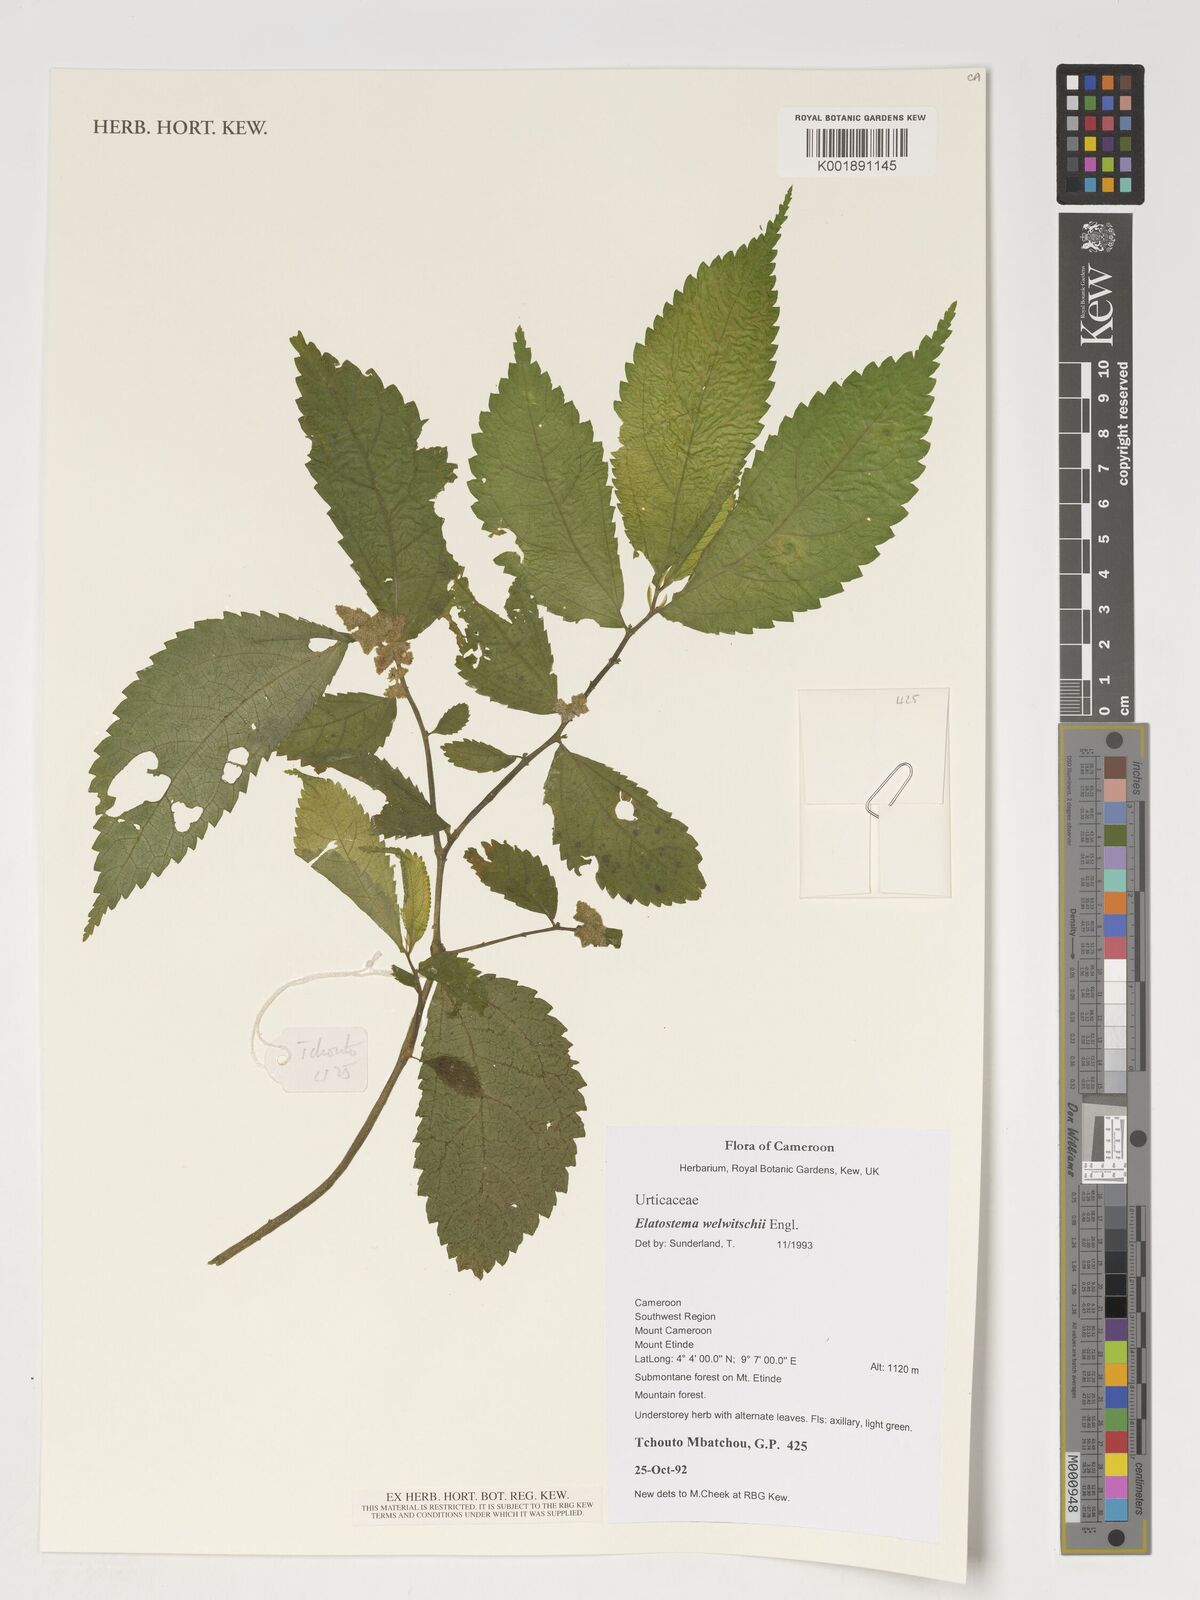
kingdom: Plantae
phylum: Tracheophyta
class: Magnoliopsida
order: Rosales
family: Urticaceae
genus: Elatostema
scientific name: Elatostema welwitschii
